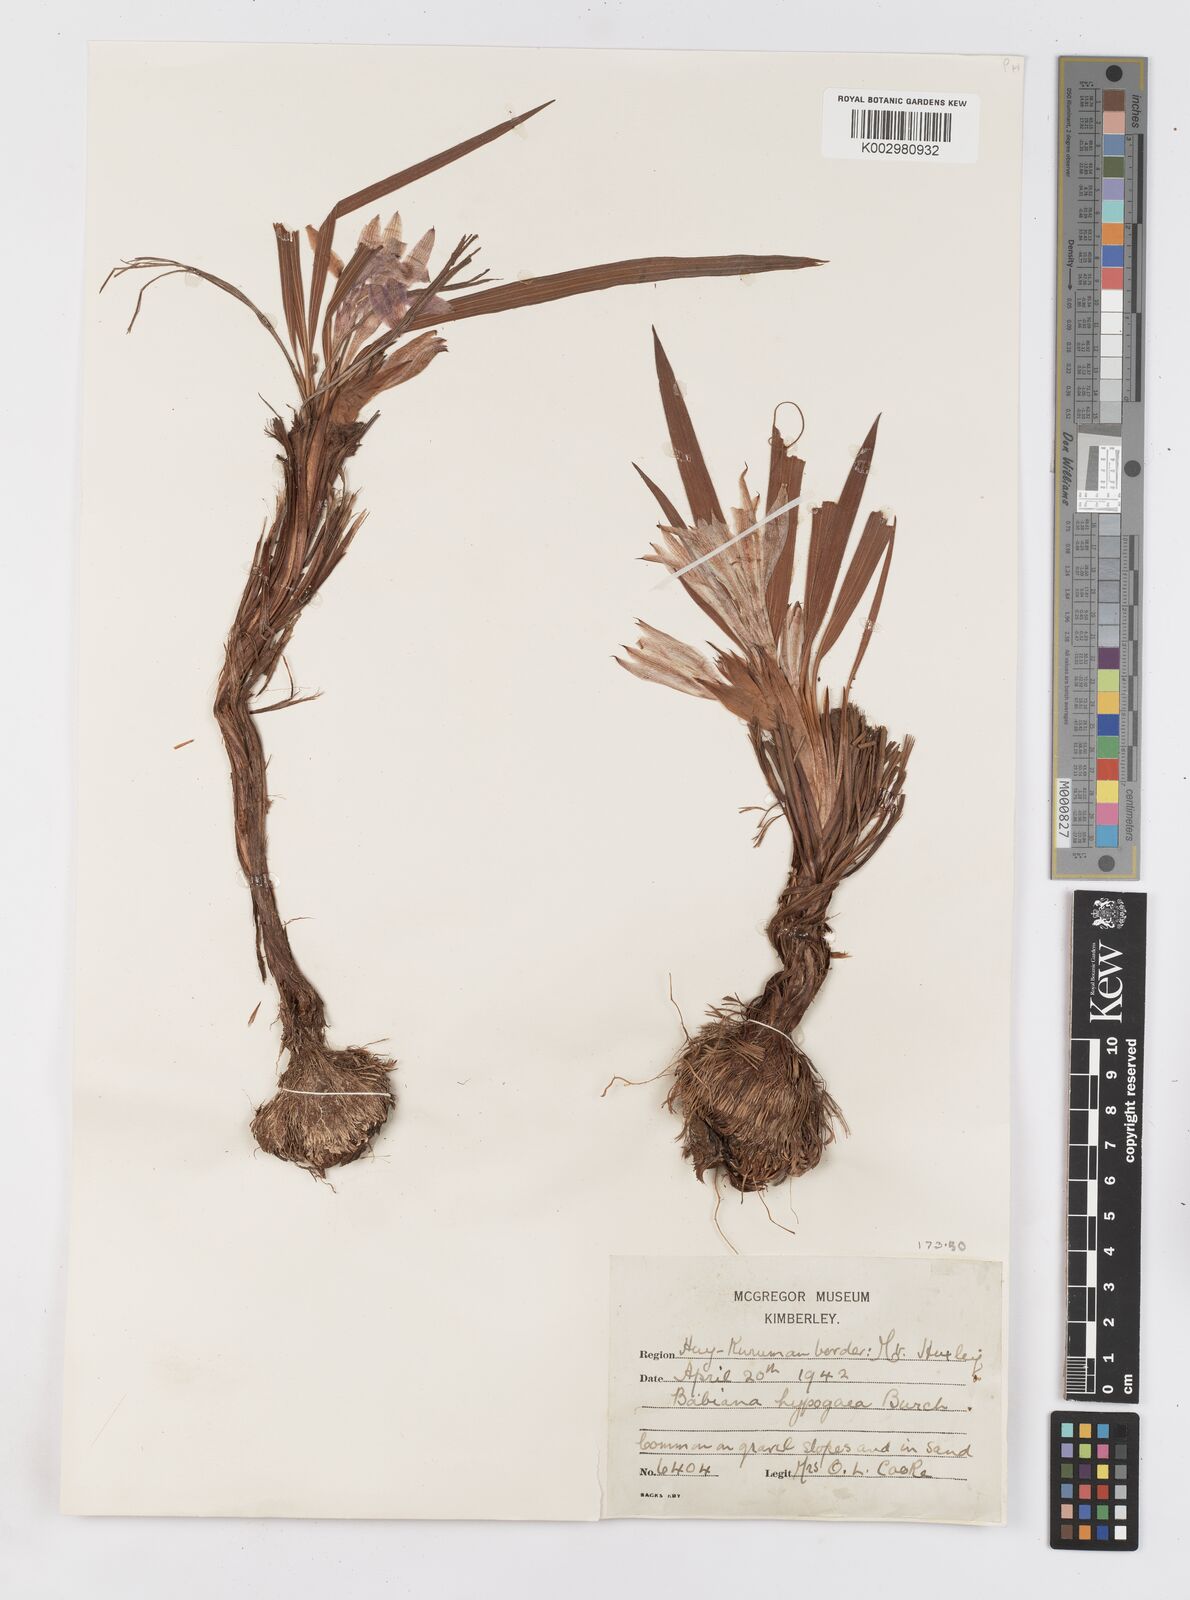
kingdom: Plantae
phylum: Tracheophyta
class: Liliopsida
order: Asparagales
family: Iridaceae
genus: Babiana
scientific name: Babiana hypogaea
